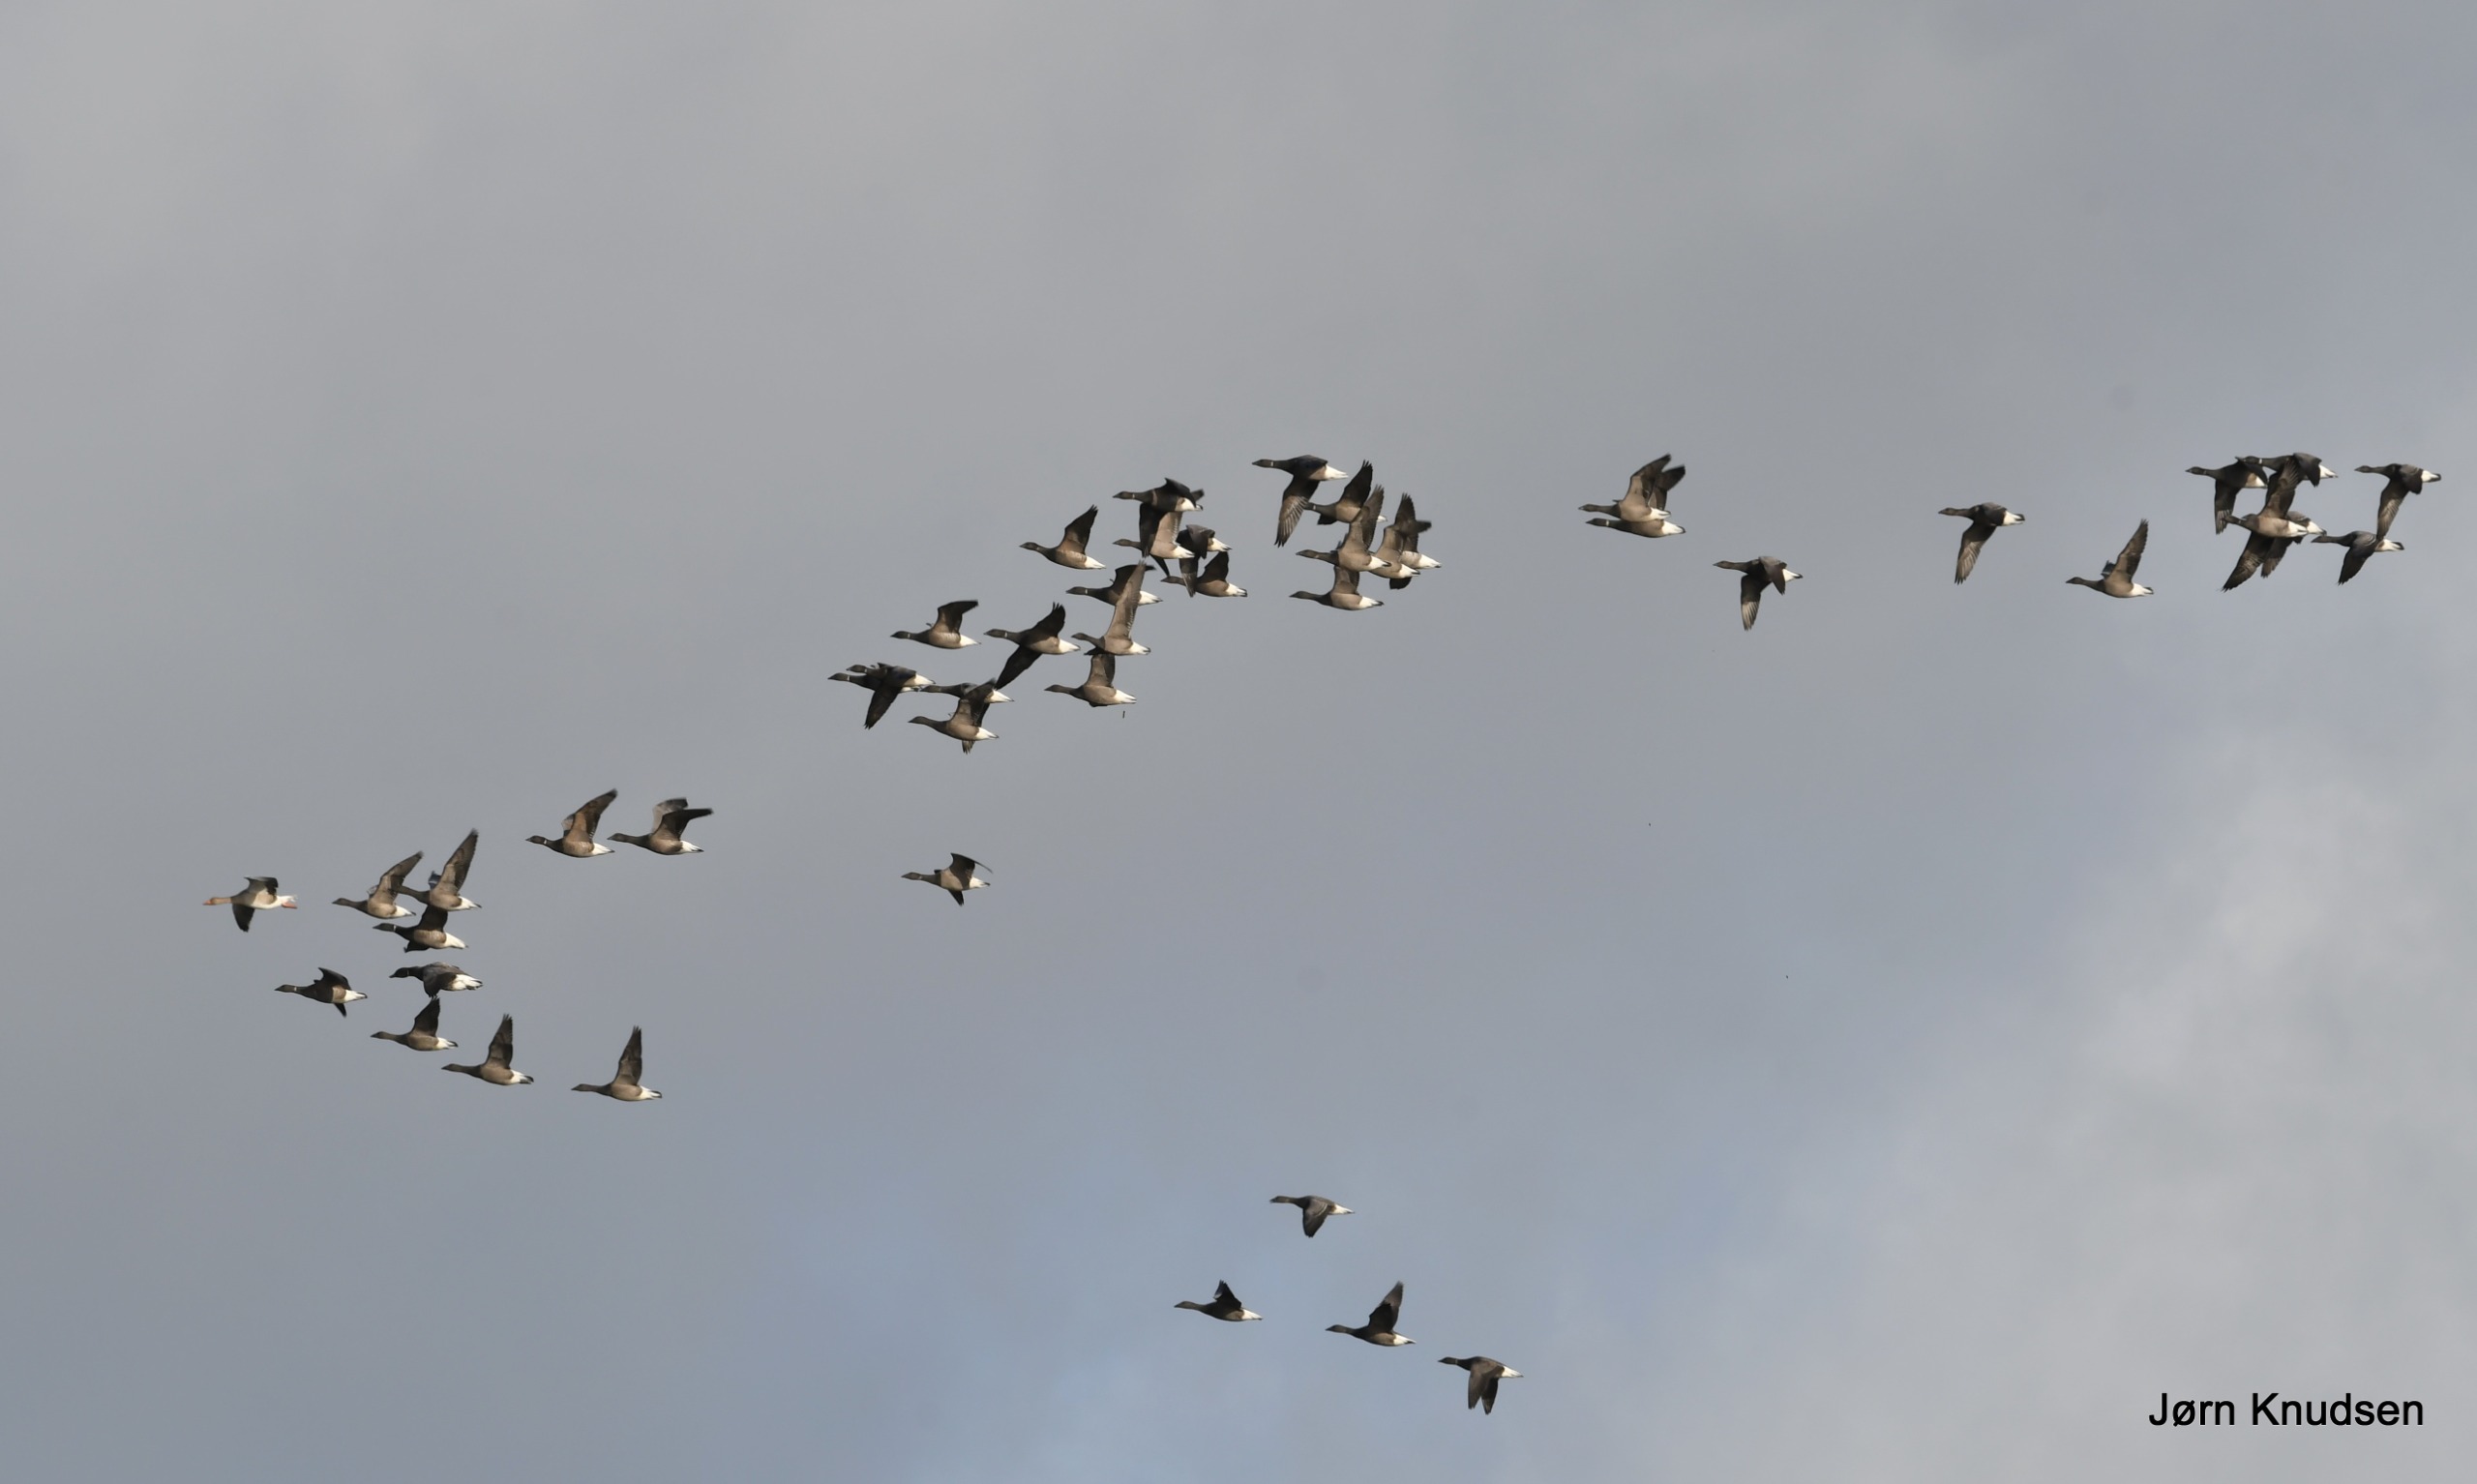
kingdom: Animalia
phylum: Chordata
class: Aves
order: Anseriformes
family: Anatidae
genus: Branta
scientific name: Branta bernicla
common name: Knortegås
